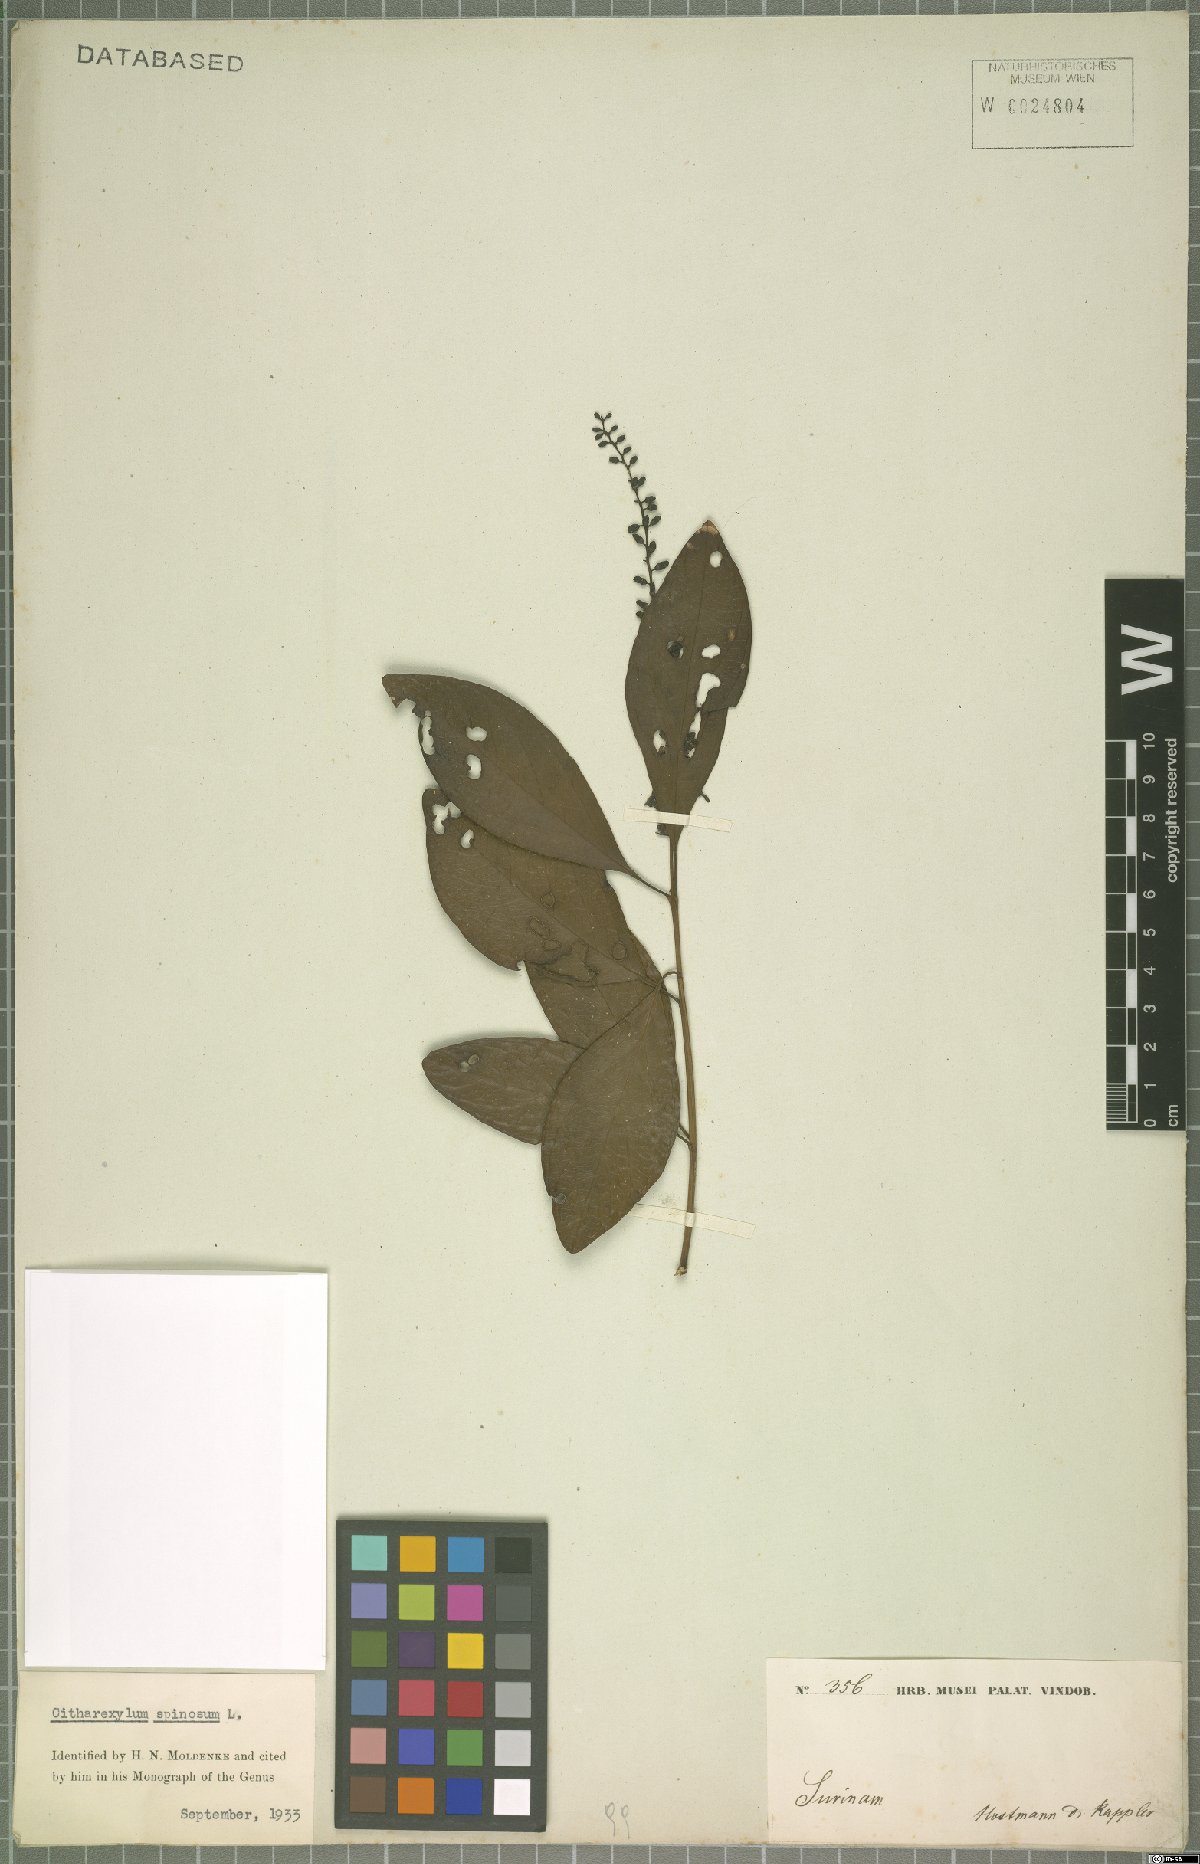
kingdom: Plantae
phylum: Tracheophyta
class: Magnoliopsida
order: Lamiales
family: Verbenaceae
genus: Citharexylum
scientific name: Citharexylum spinosum
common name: Fiddlewood
